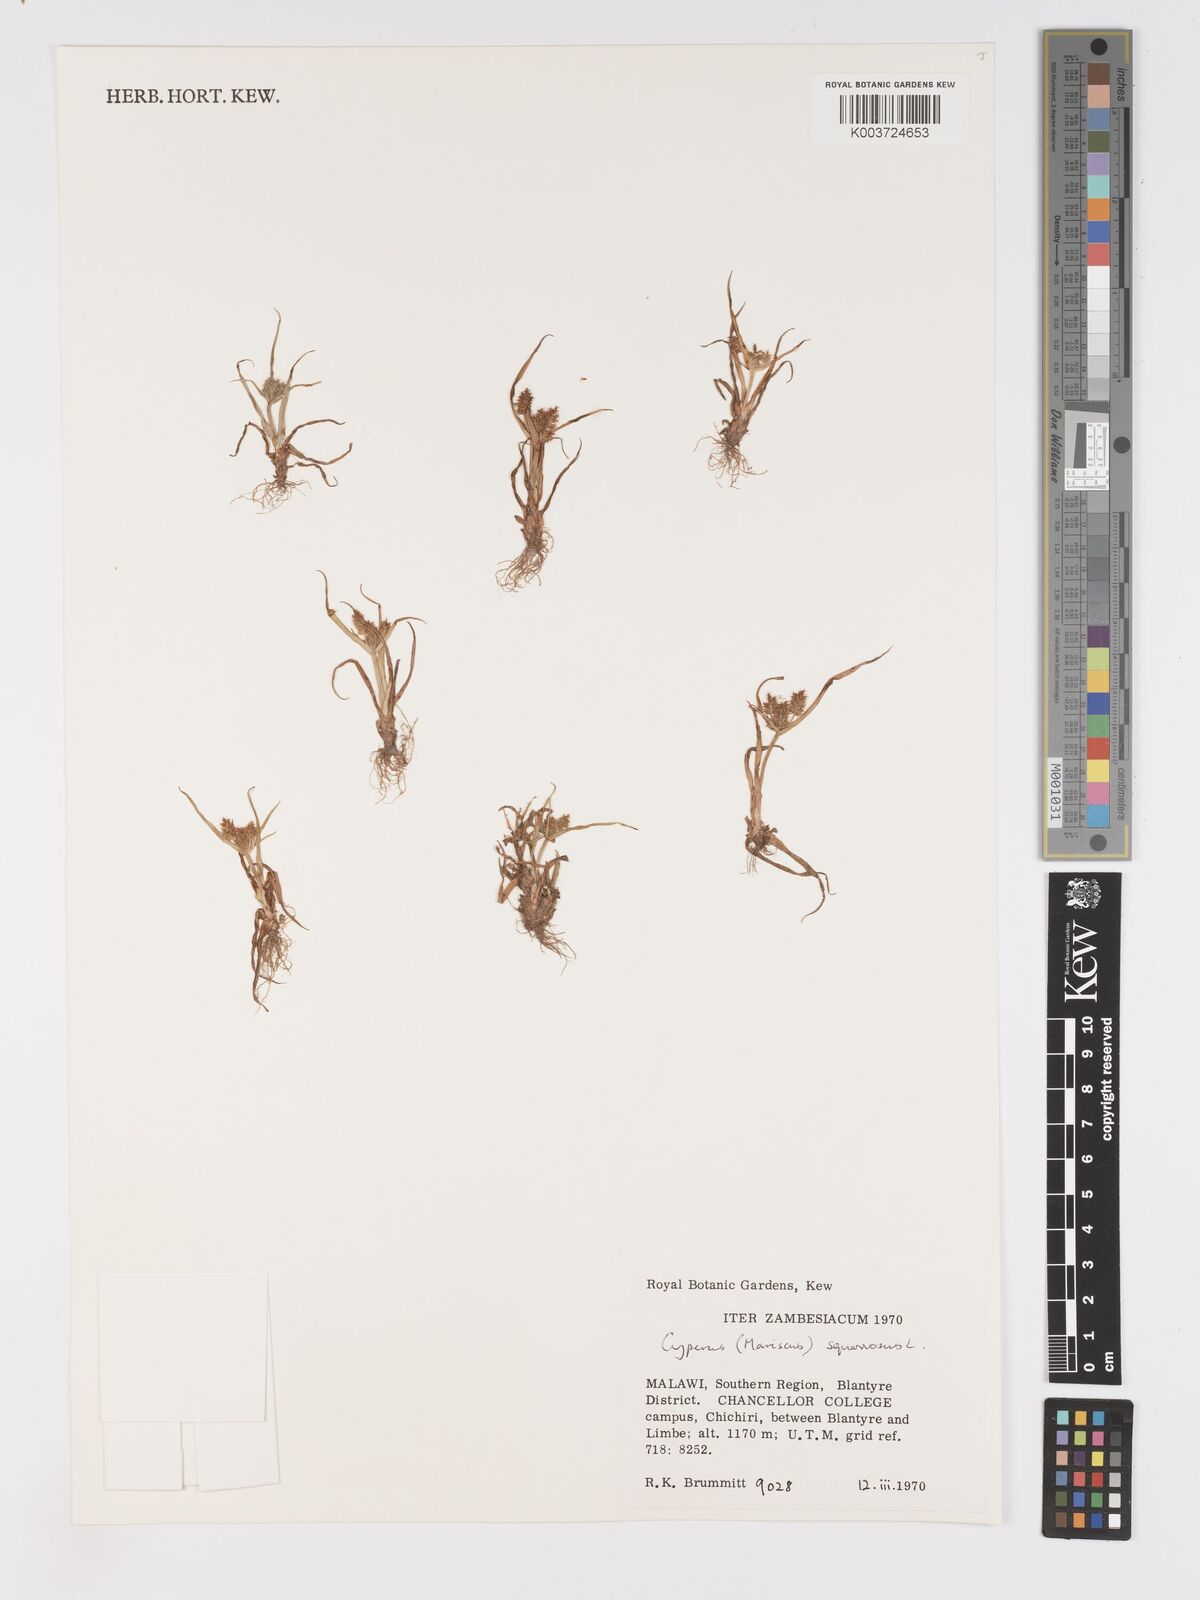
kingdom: Plantae
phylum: Tracheophyta
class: Liliopsida
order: Poales
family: Cyperaceae
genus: Cyperus
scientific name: Cyperus squarrosus
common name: Awned cyperus
